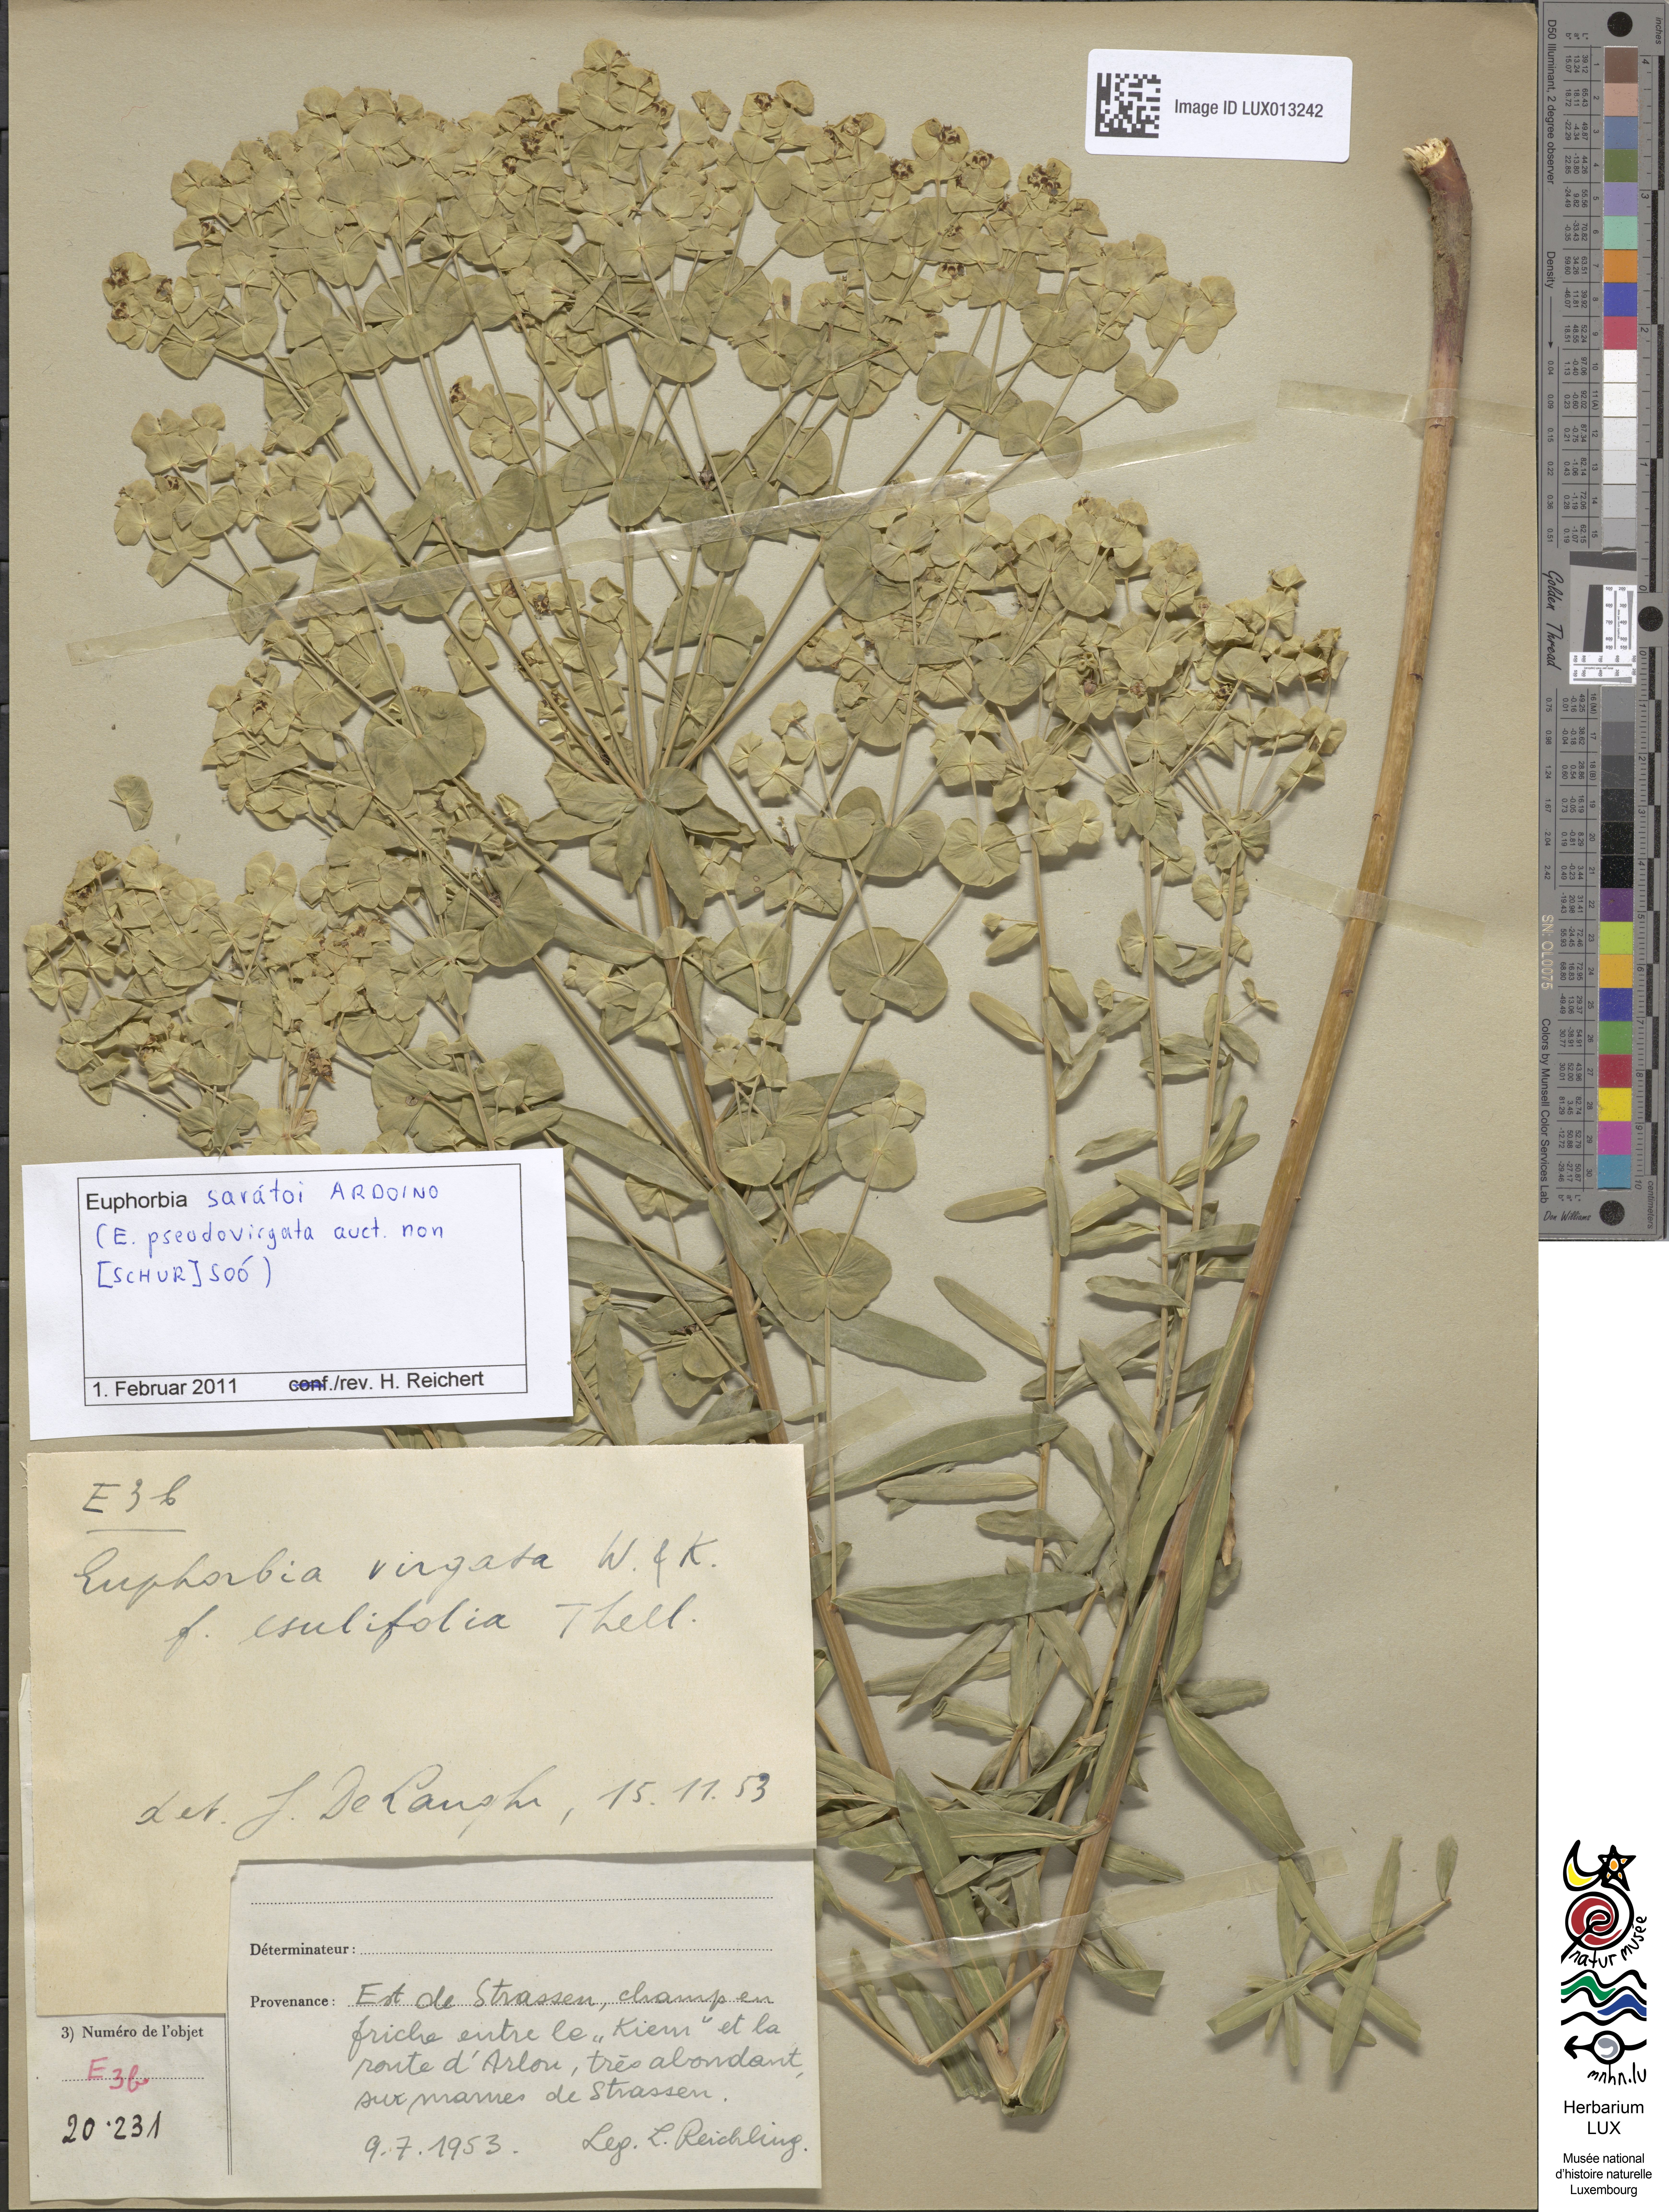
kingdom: Plantae
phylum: Tracheophyta
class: Magnoliopsida
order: Malpighiales
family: Euphorbiaceae
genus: Euphorbia
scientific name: Euphorbia saratoi
